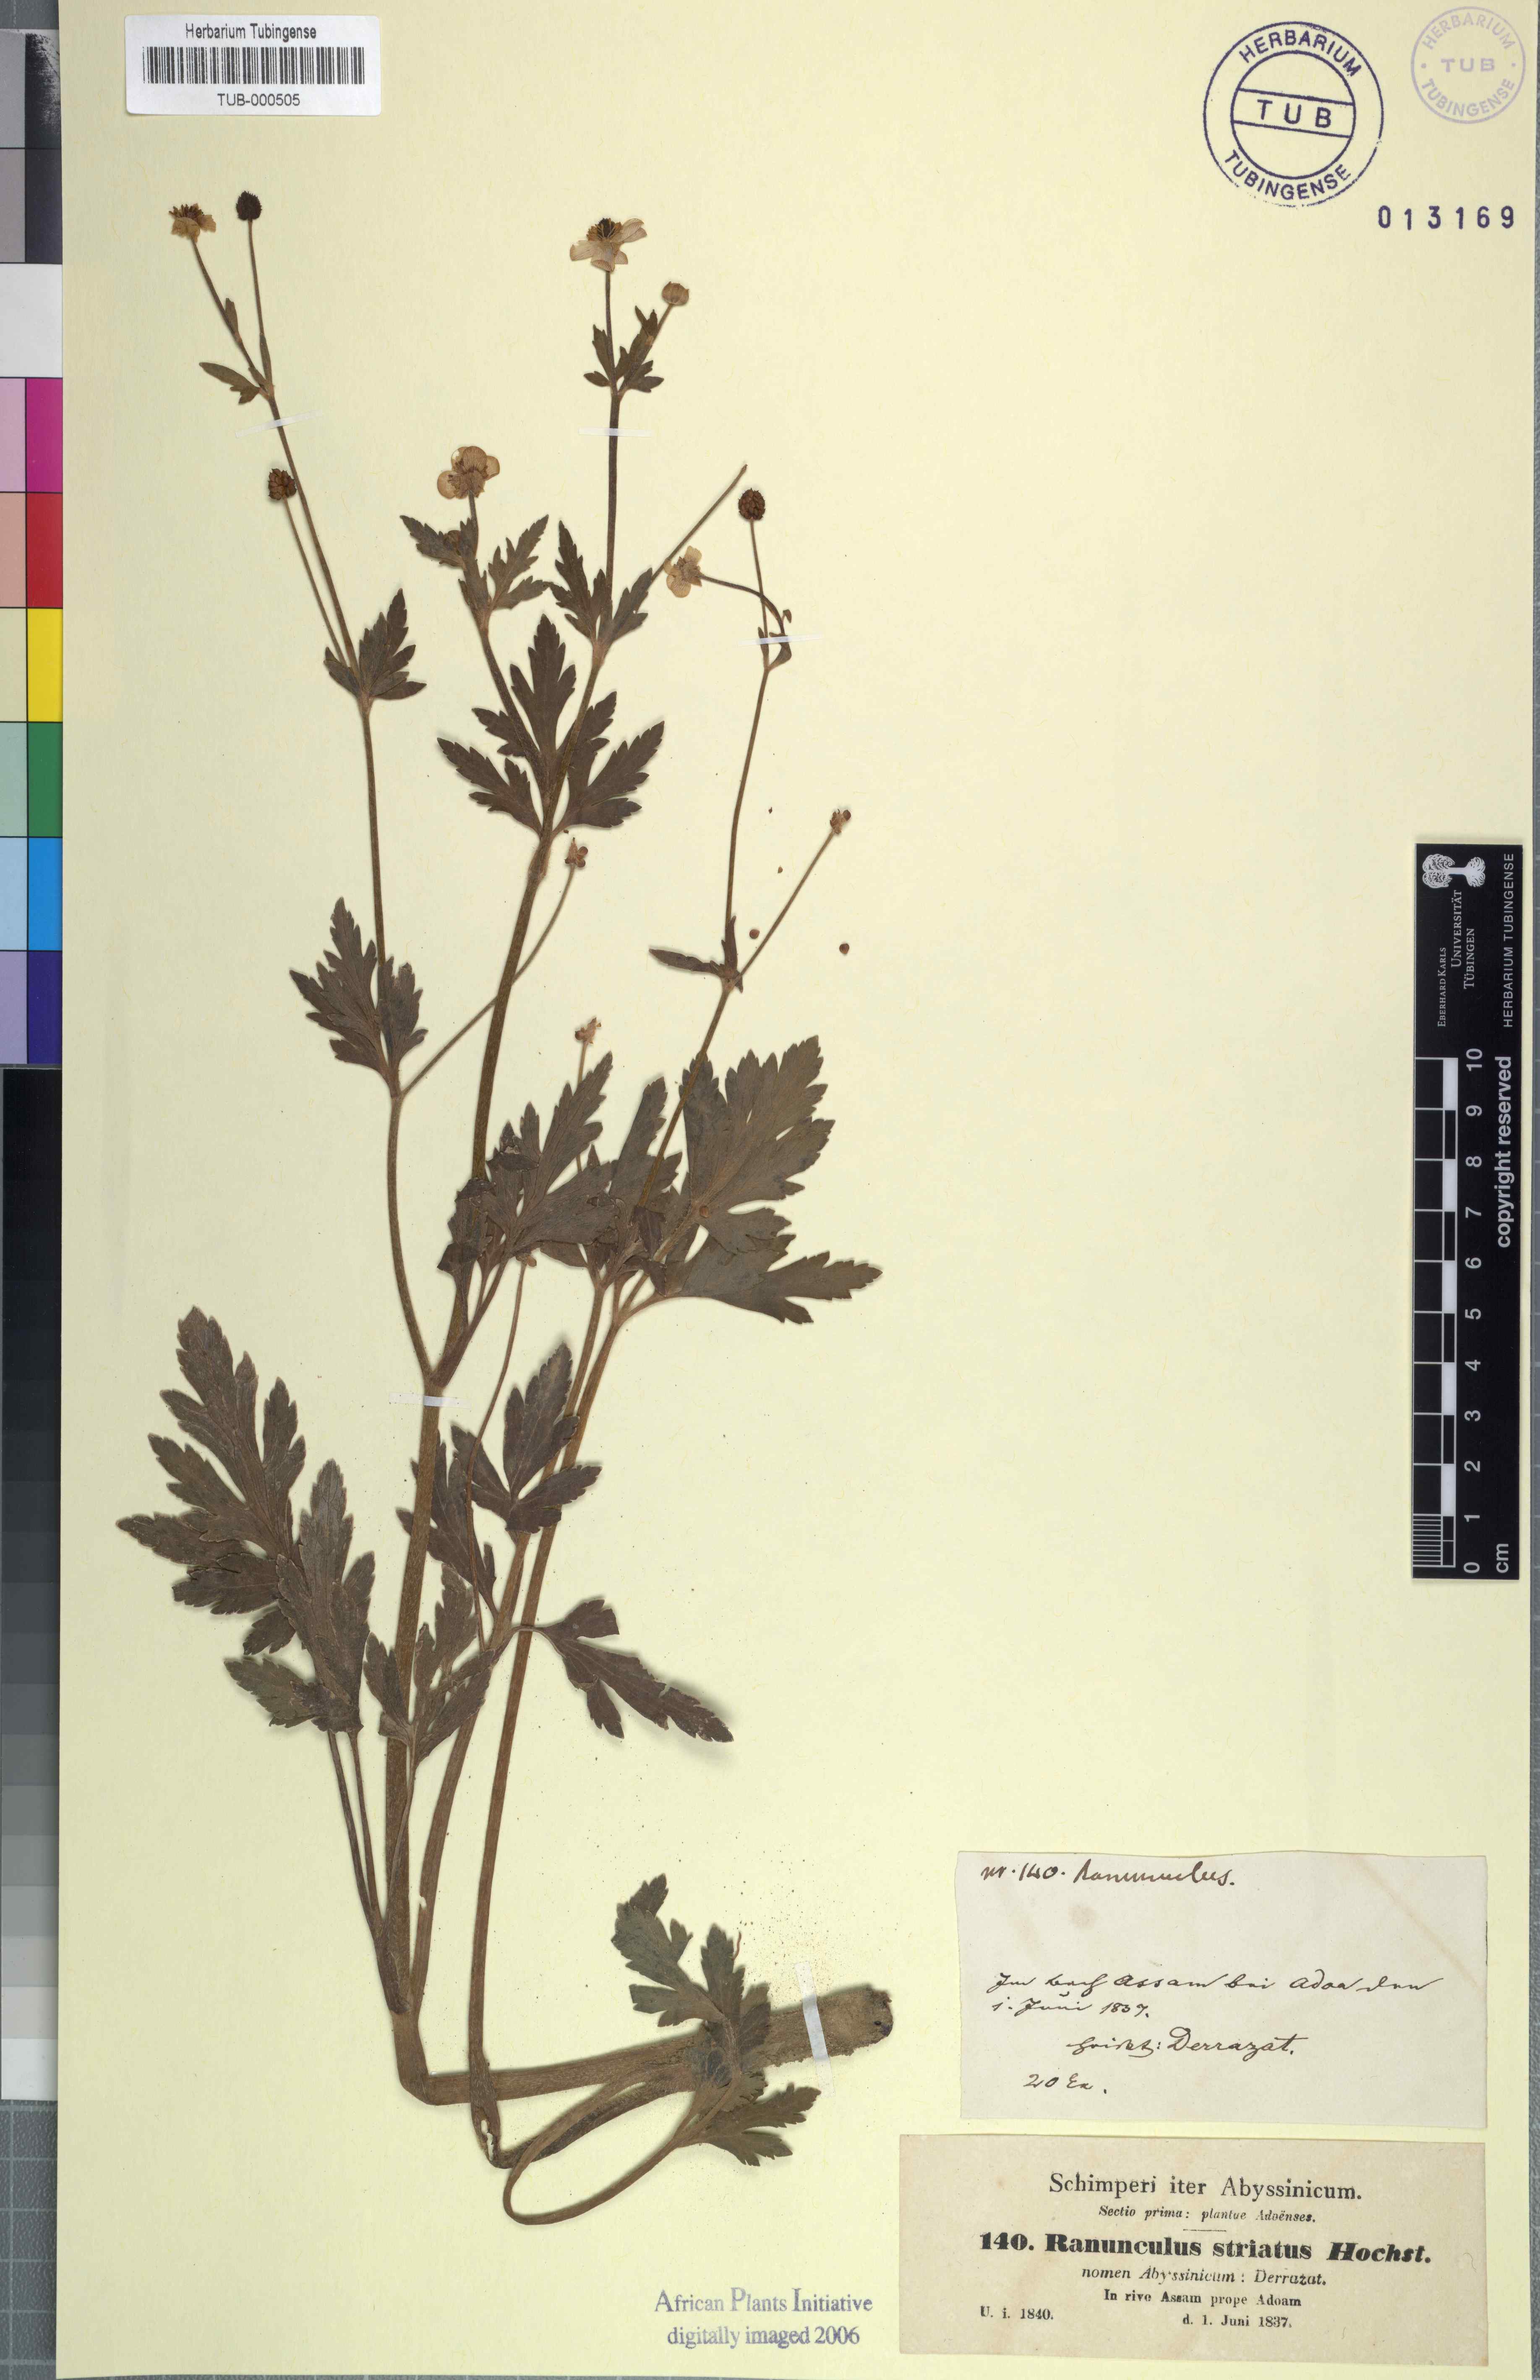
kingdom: Plantae
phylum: Tracheophyta
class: Magnoliopsida
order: Ranunculales
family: Ranunculaceae
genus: Ranunculus
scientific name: Ranunculus multifidus
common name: Wild buttercup
